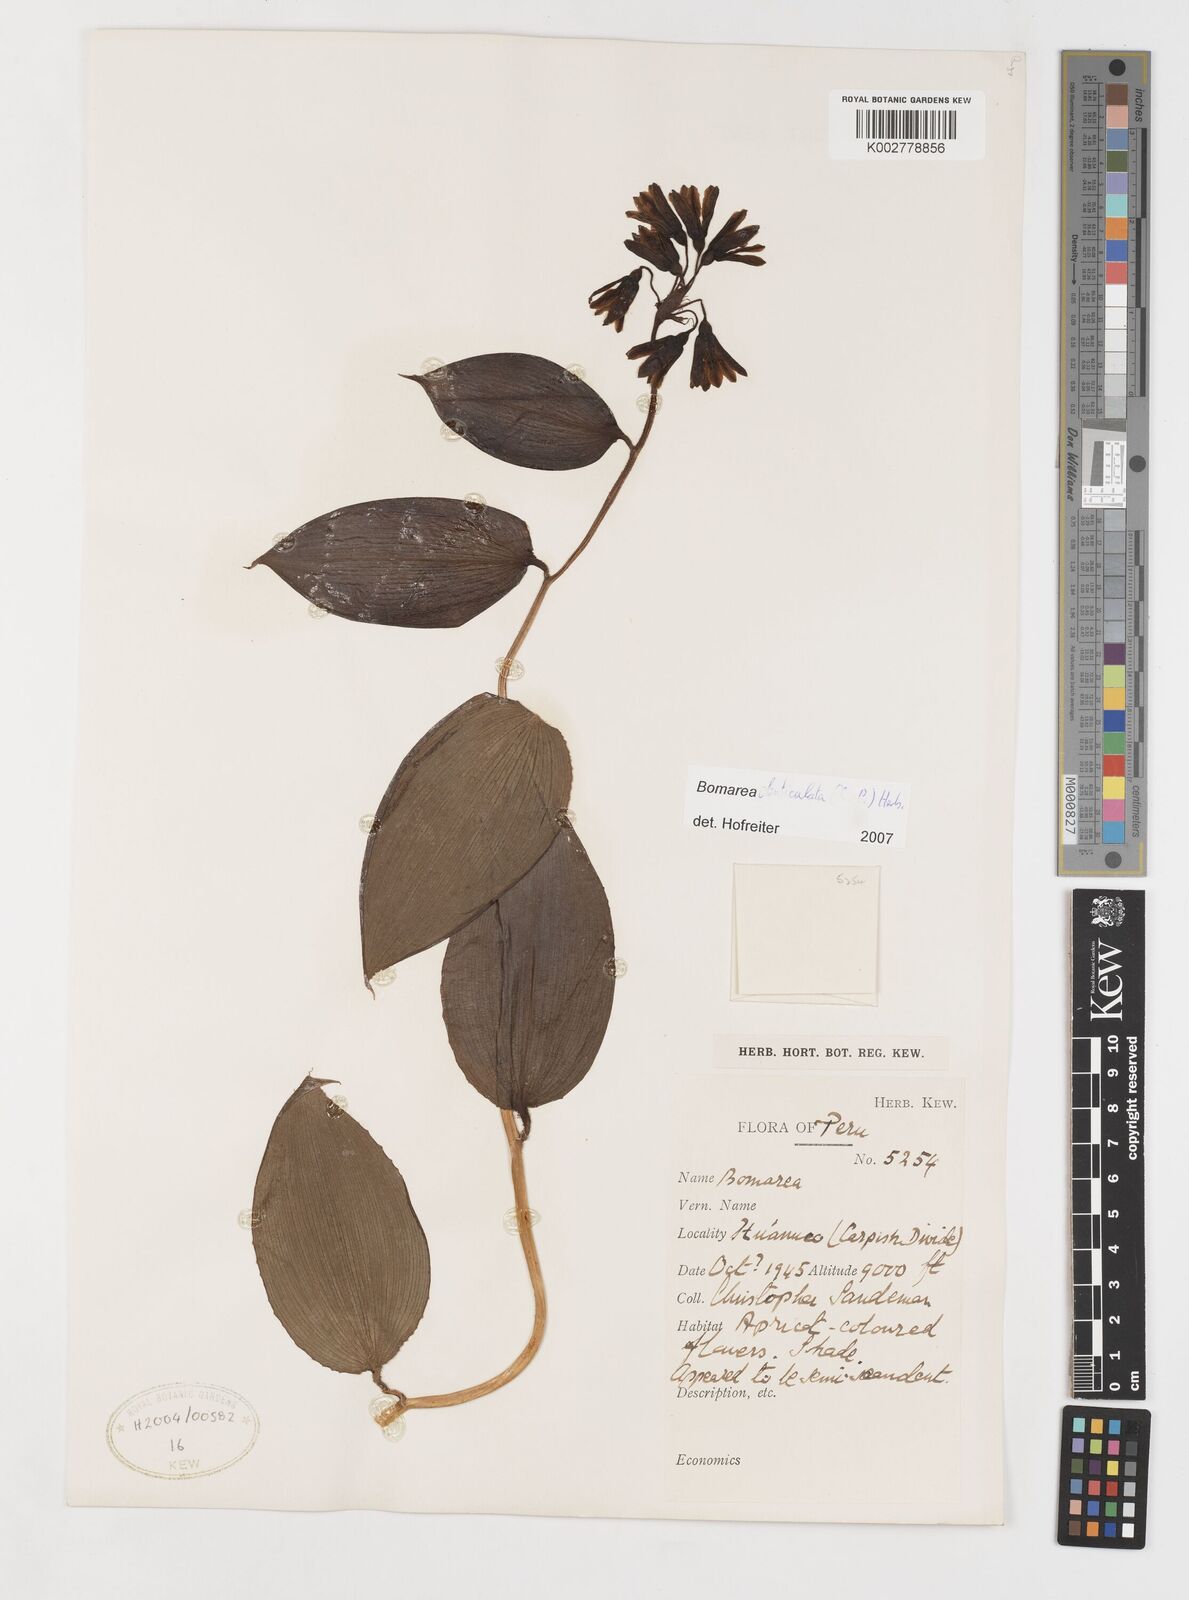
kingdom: Plantae
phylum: Tracheophyta
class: Liliopsida
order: Liliales
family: Alstroemeriaceae
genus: Bomarea
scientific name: Bomarea denticulata
